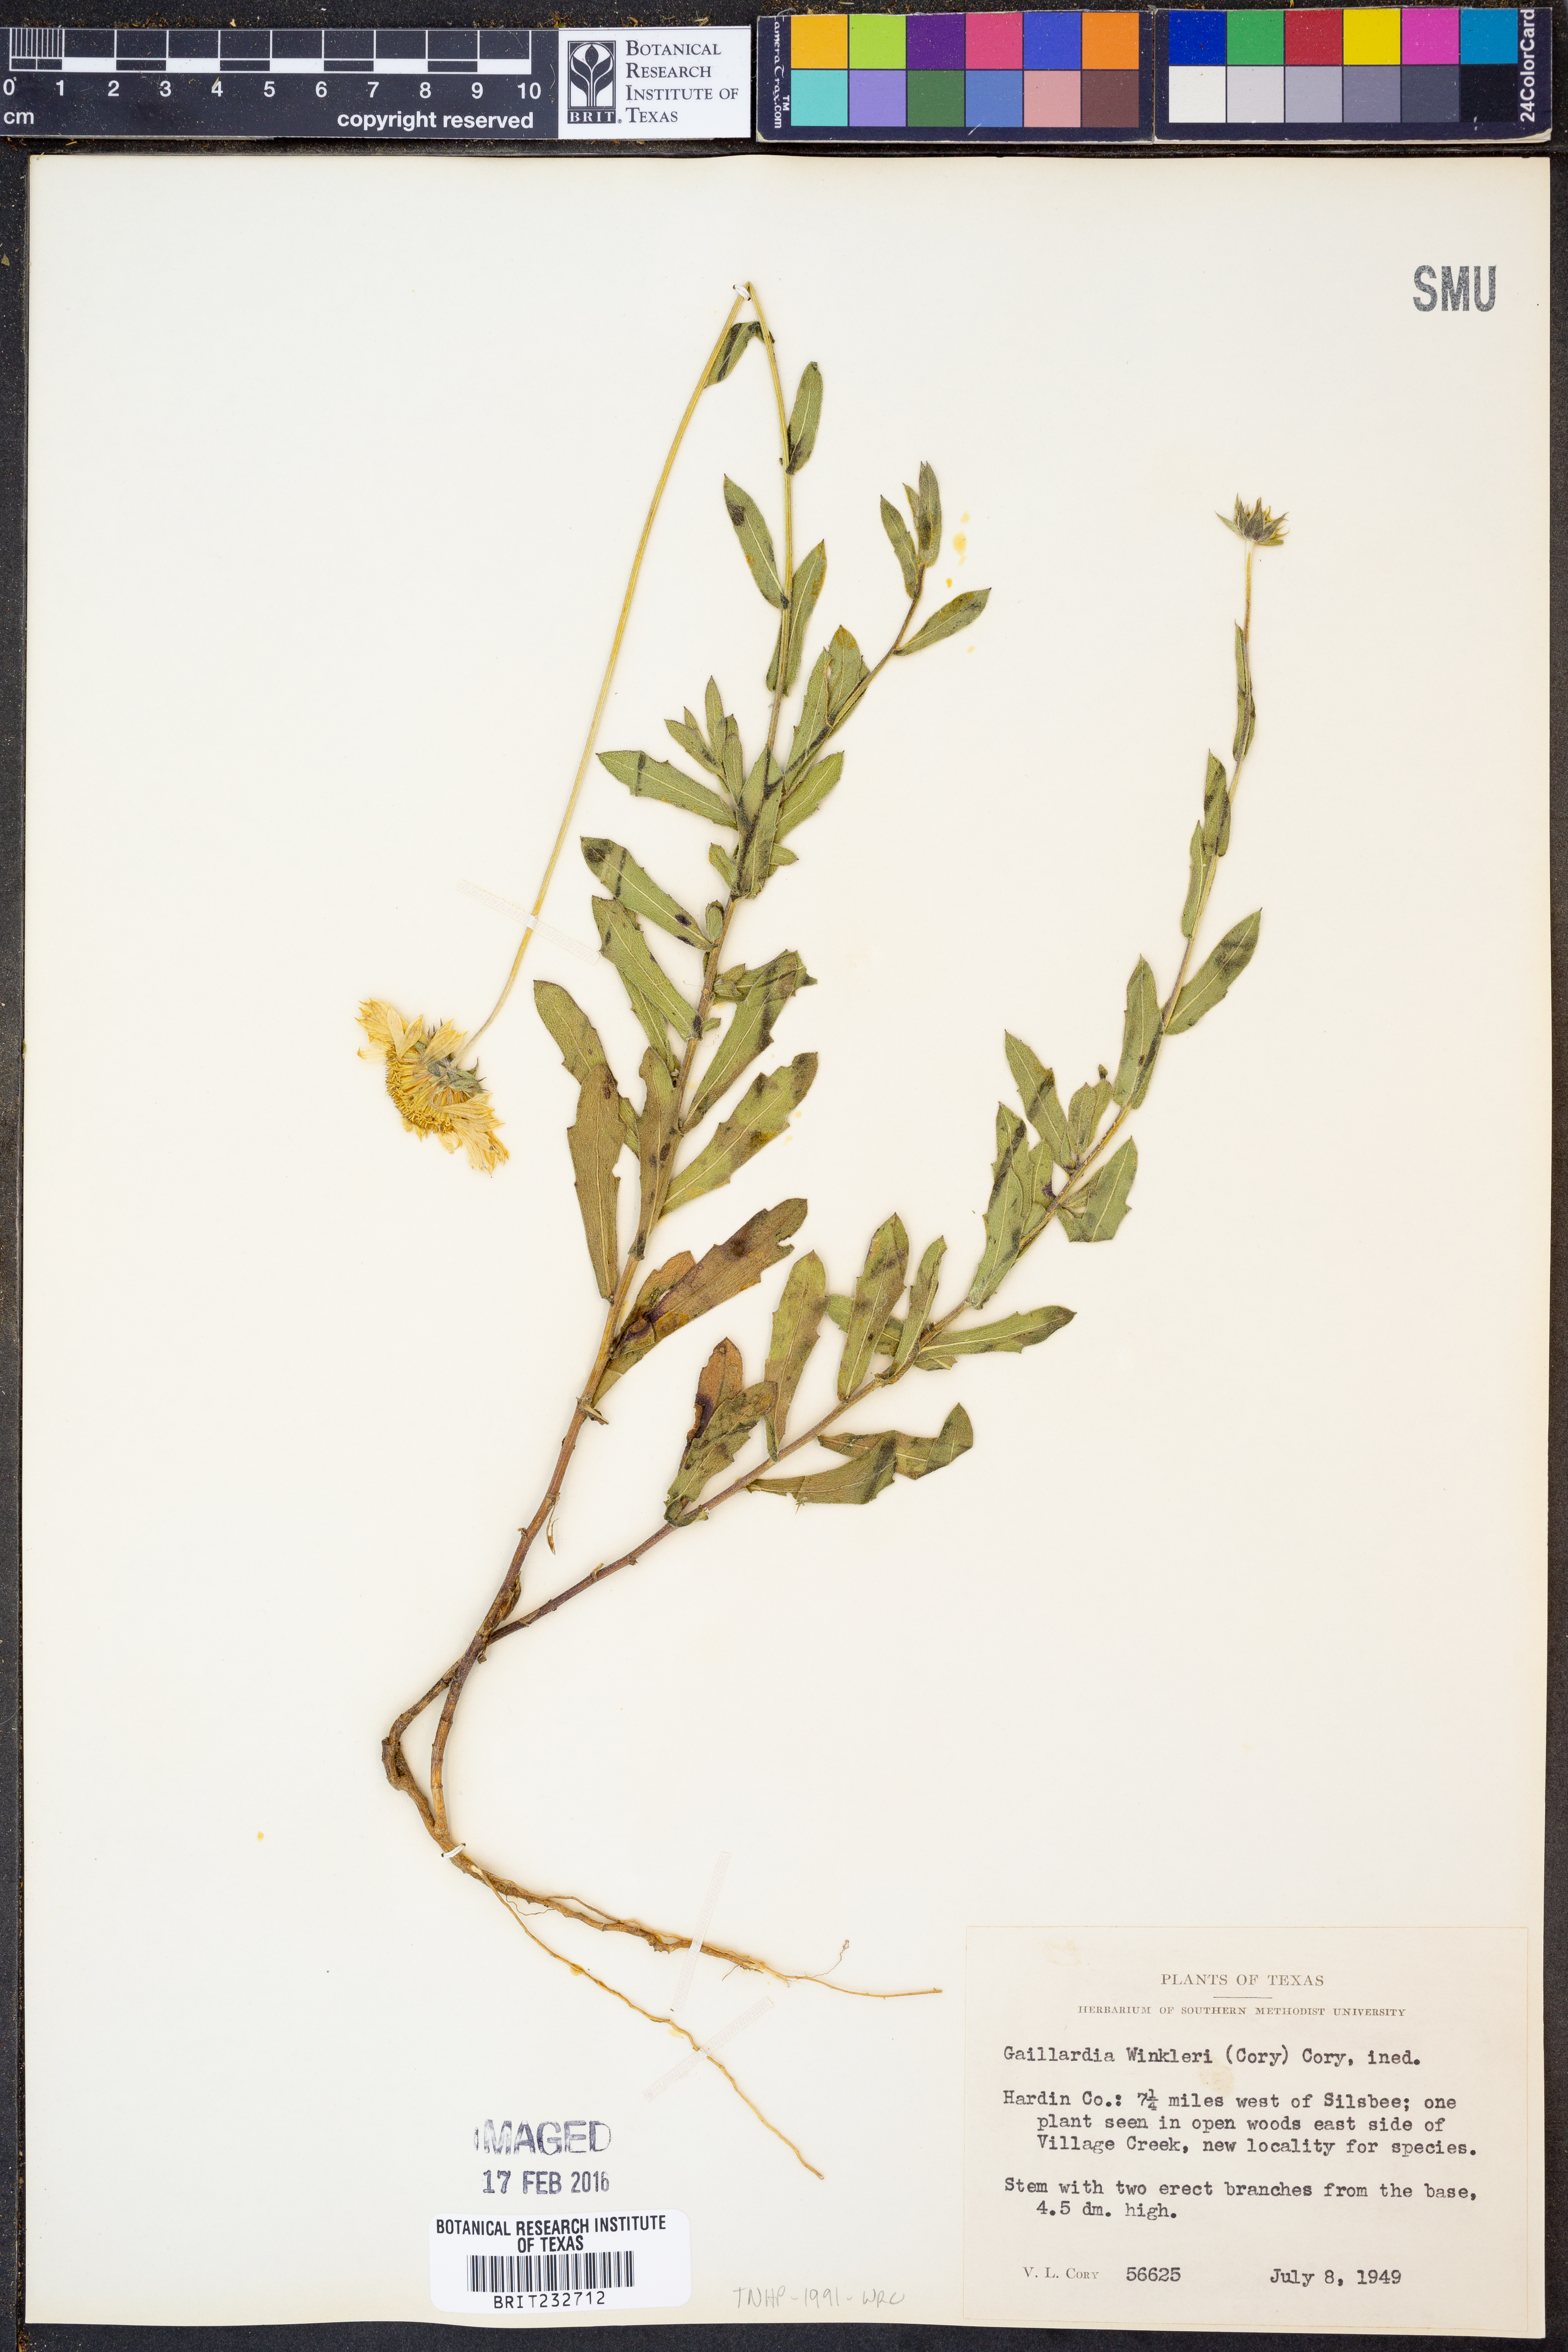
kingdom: Plantae
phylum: Tracheophyta
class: Magnoliopsida
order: Asterales
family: Asteraceae
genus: Gaillardia
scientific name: Gaillardia
